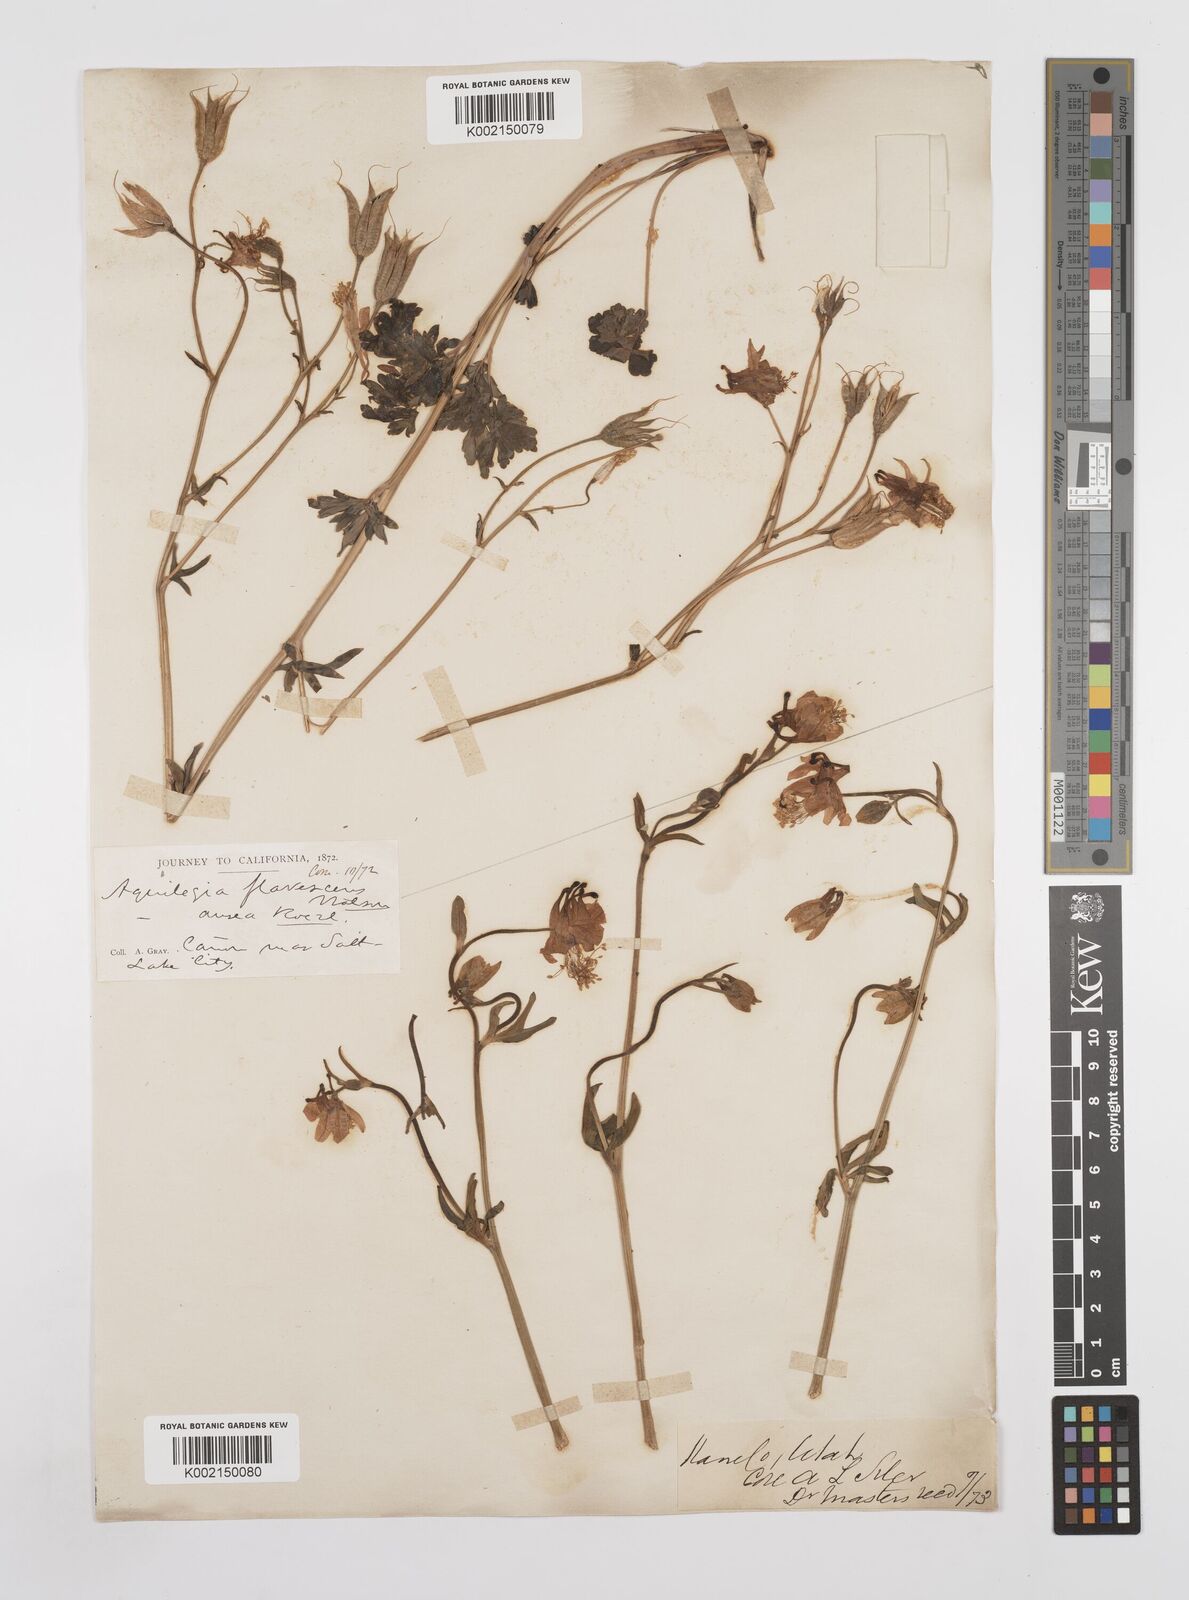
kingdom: Plantae
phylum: Tracheophyta
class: Magnoliopsida
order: Ranunculales
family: Ranunculaceae
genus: Aquilegia
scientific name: Aquilegia flavescens
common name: Yellow columbine
